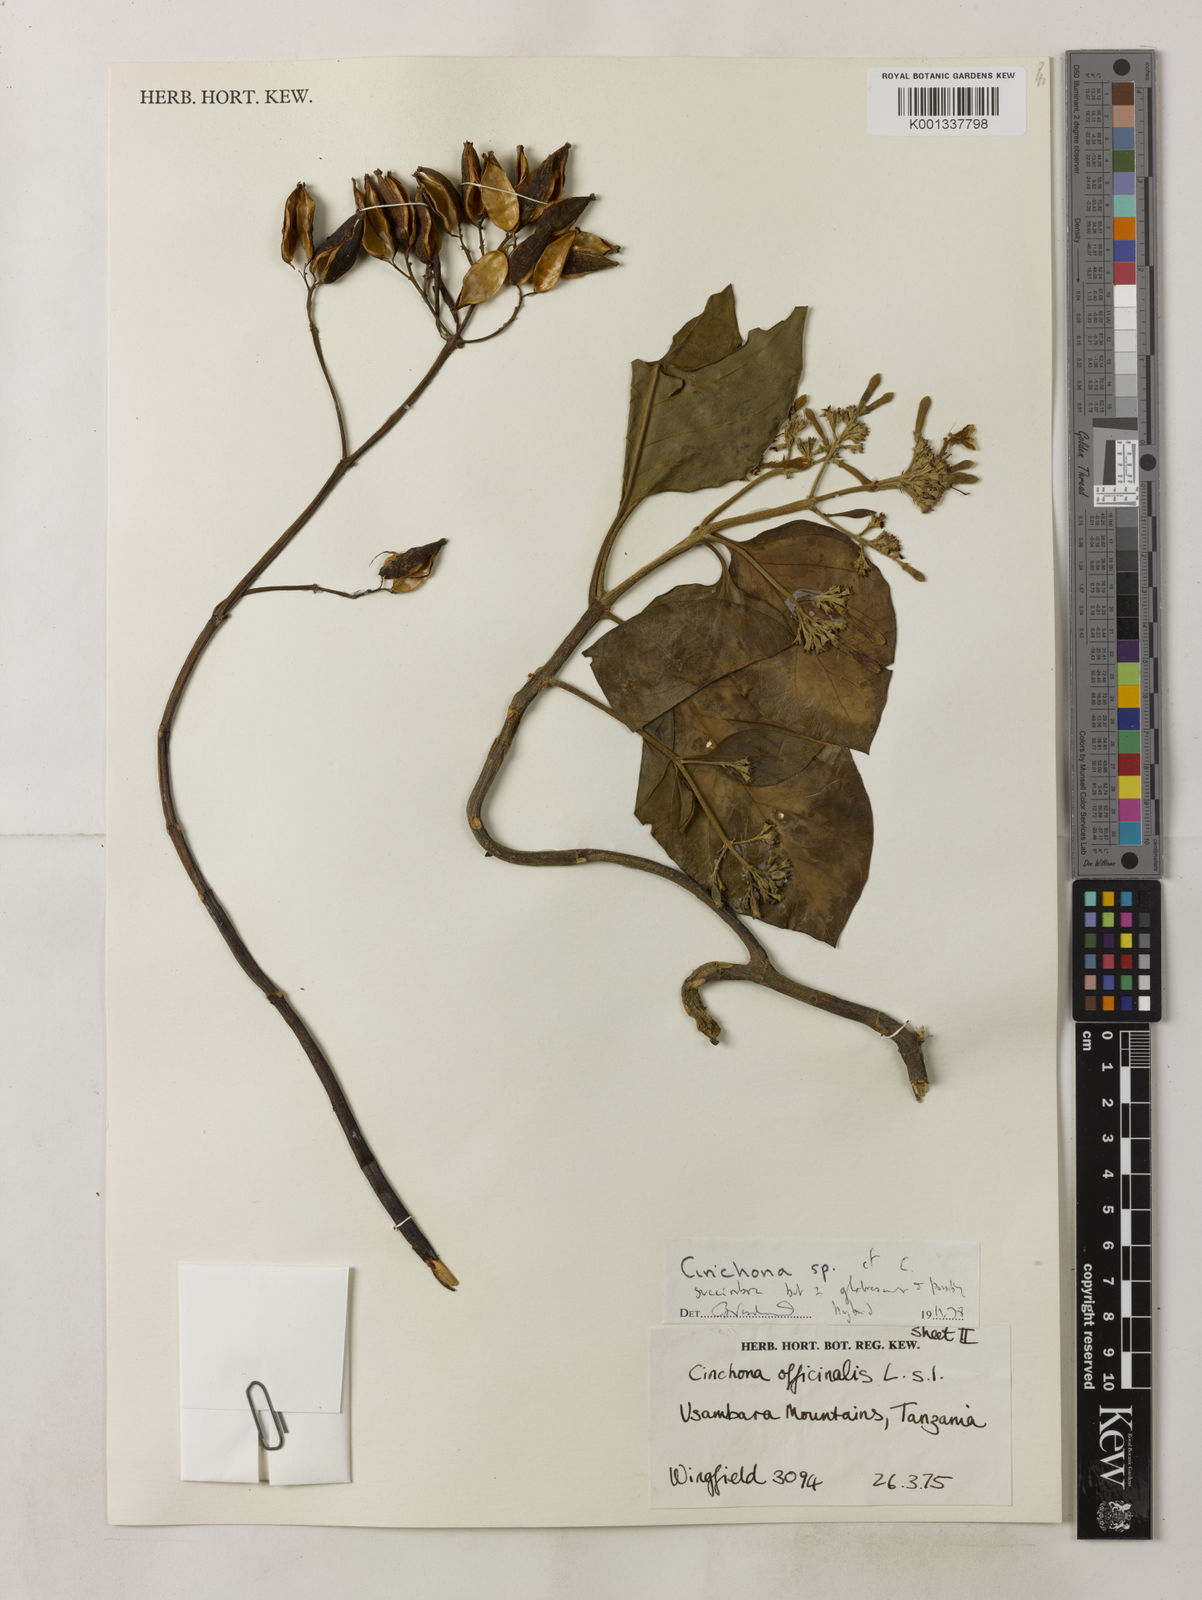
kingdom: Plantae
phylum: Tracheophyta
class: Magnoliopsida
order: Gentianales
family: Rubiaceae
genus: Cinchona
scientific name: Cinchona pubescens
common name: Quinine
